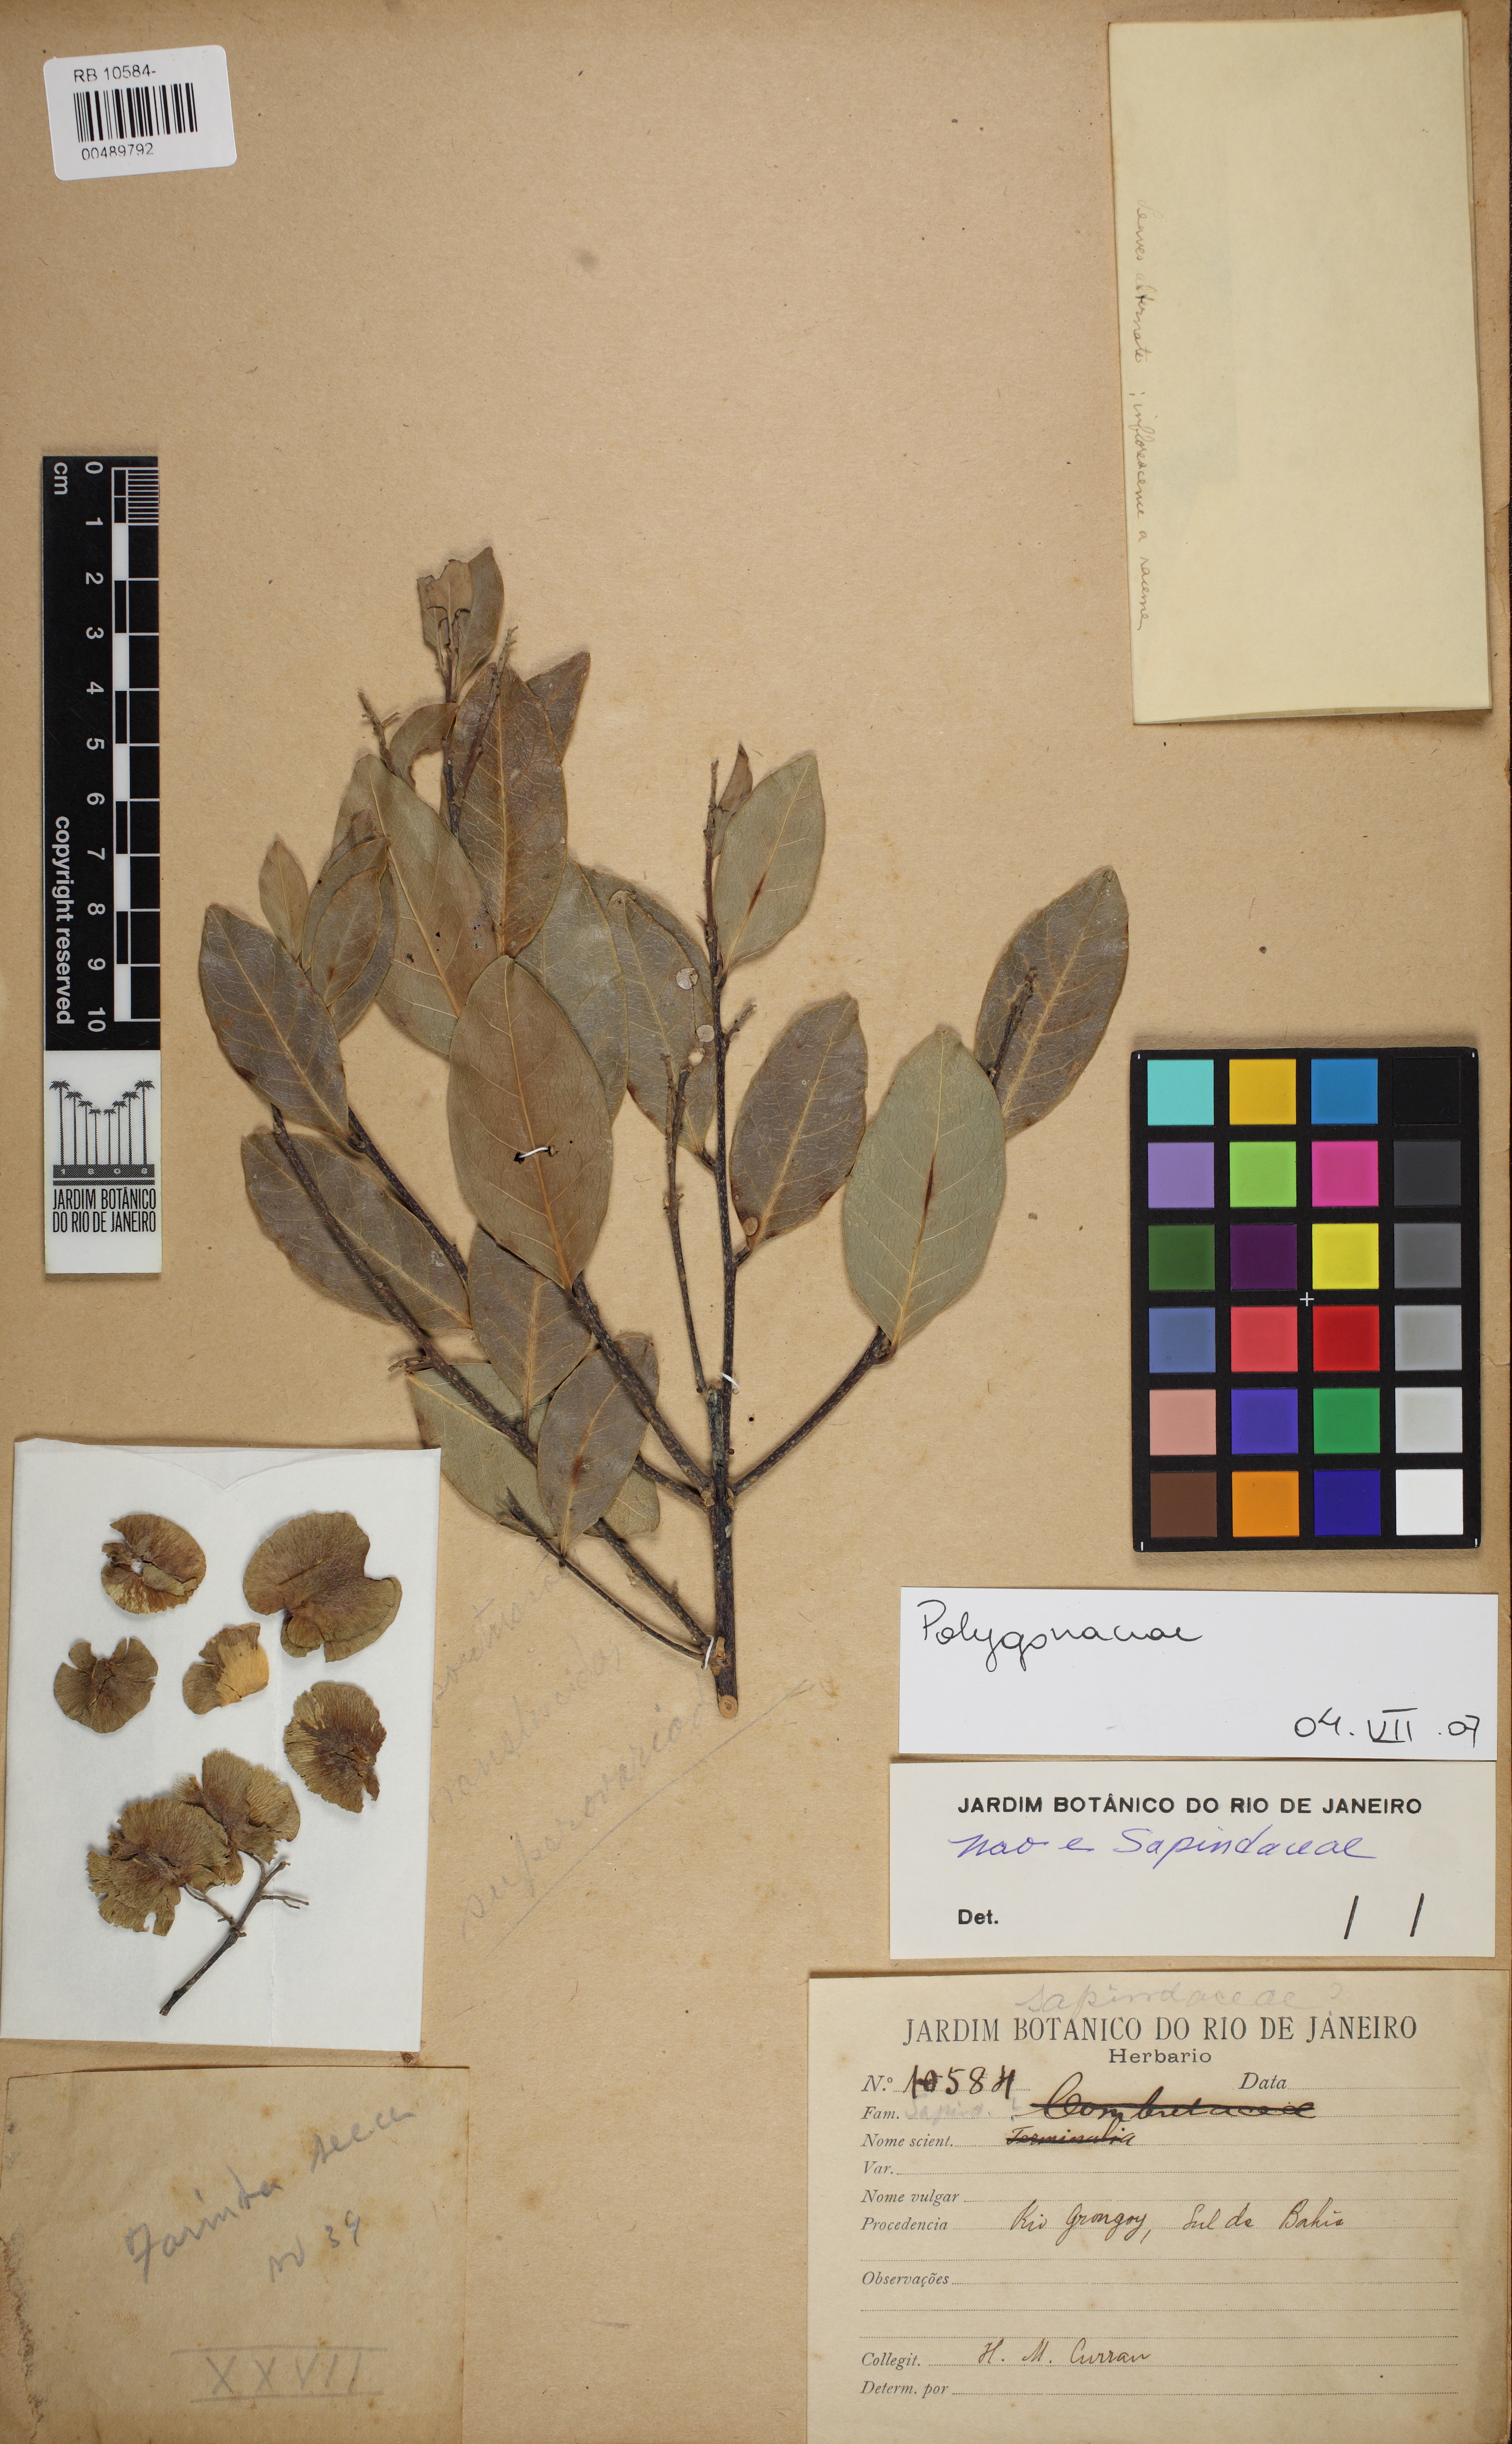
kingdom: Plantae
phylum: Tracheophyta
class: Magnoliopsida
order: Caryophyllales
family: Polygonaceae
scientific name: Polygonaceae
